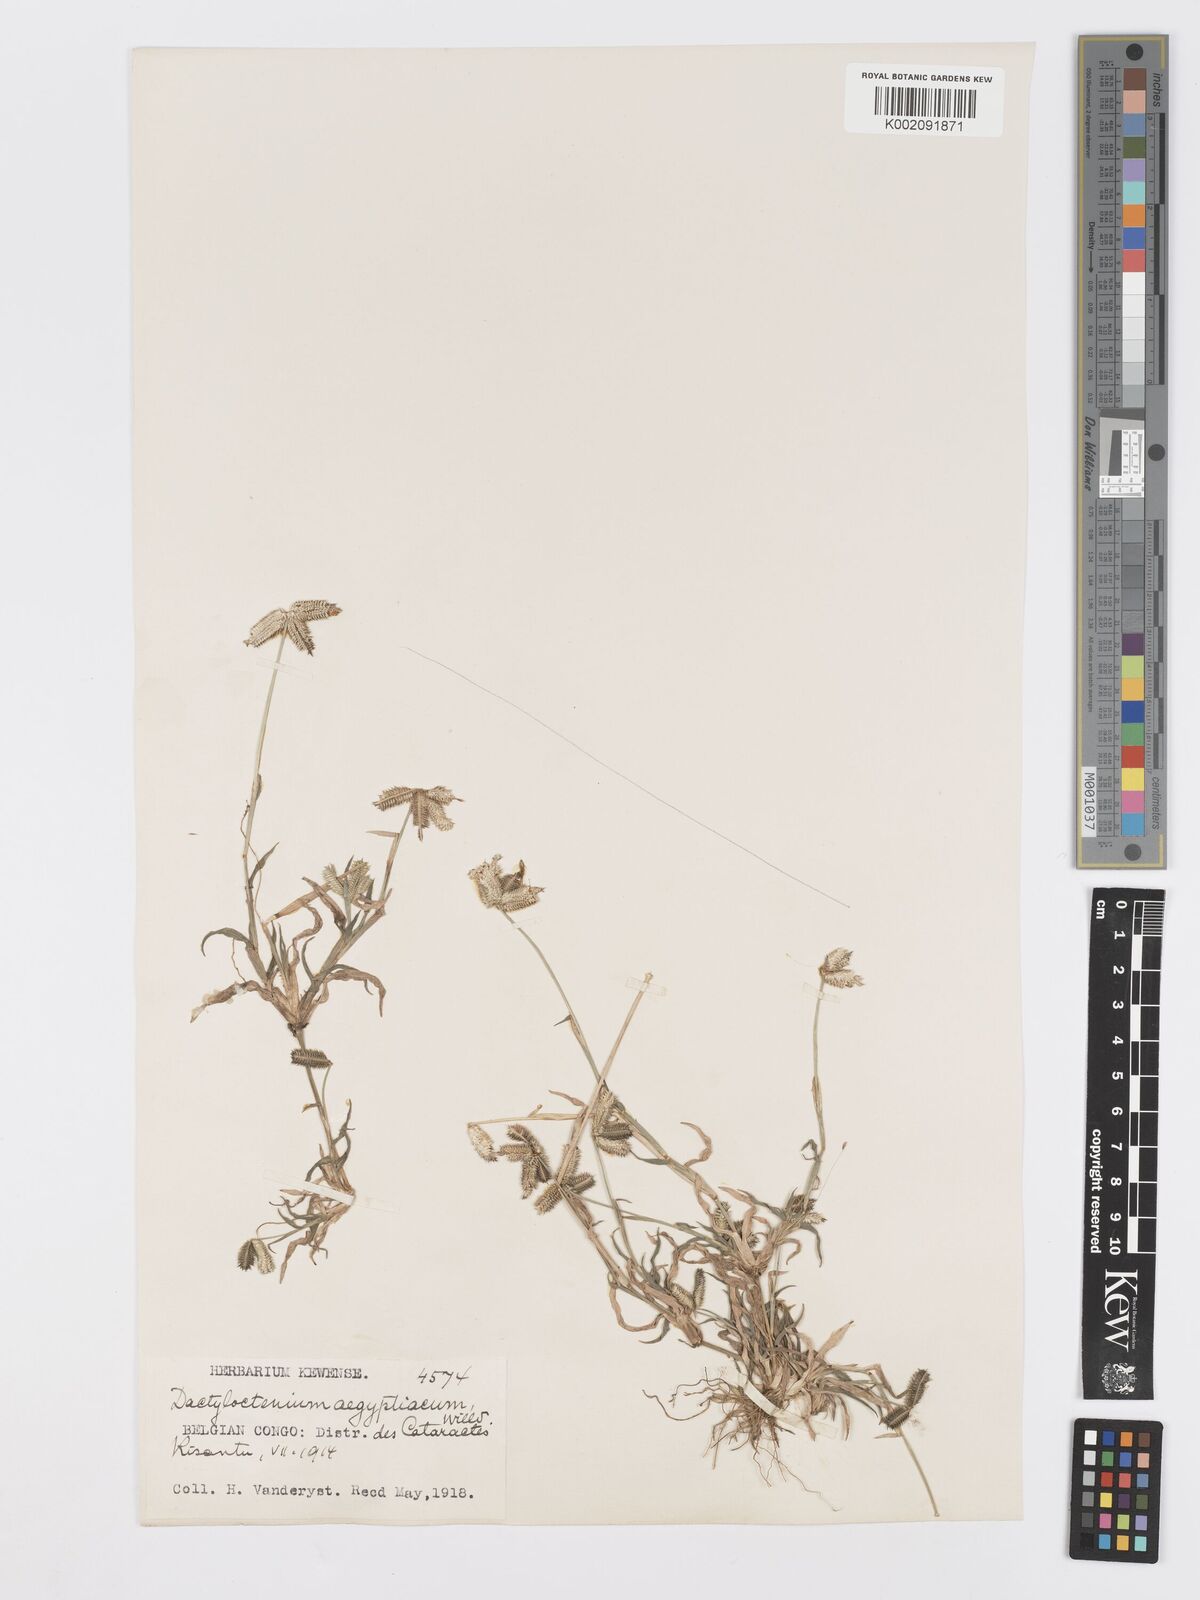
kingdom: Plantae
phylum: Tracheophyta
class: Liliopsida
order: Poales
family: Poaceae
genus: Dactyloctenium
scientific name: Dactyloctenium aegyptium
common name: Egyptian grass
